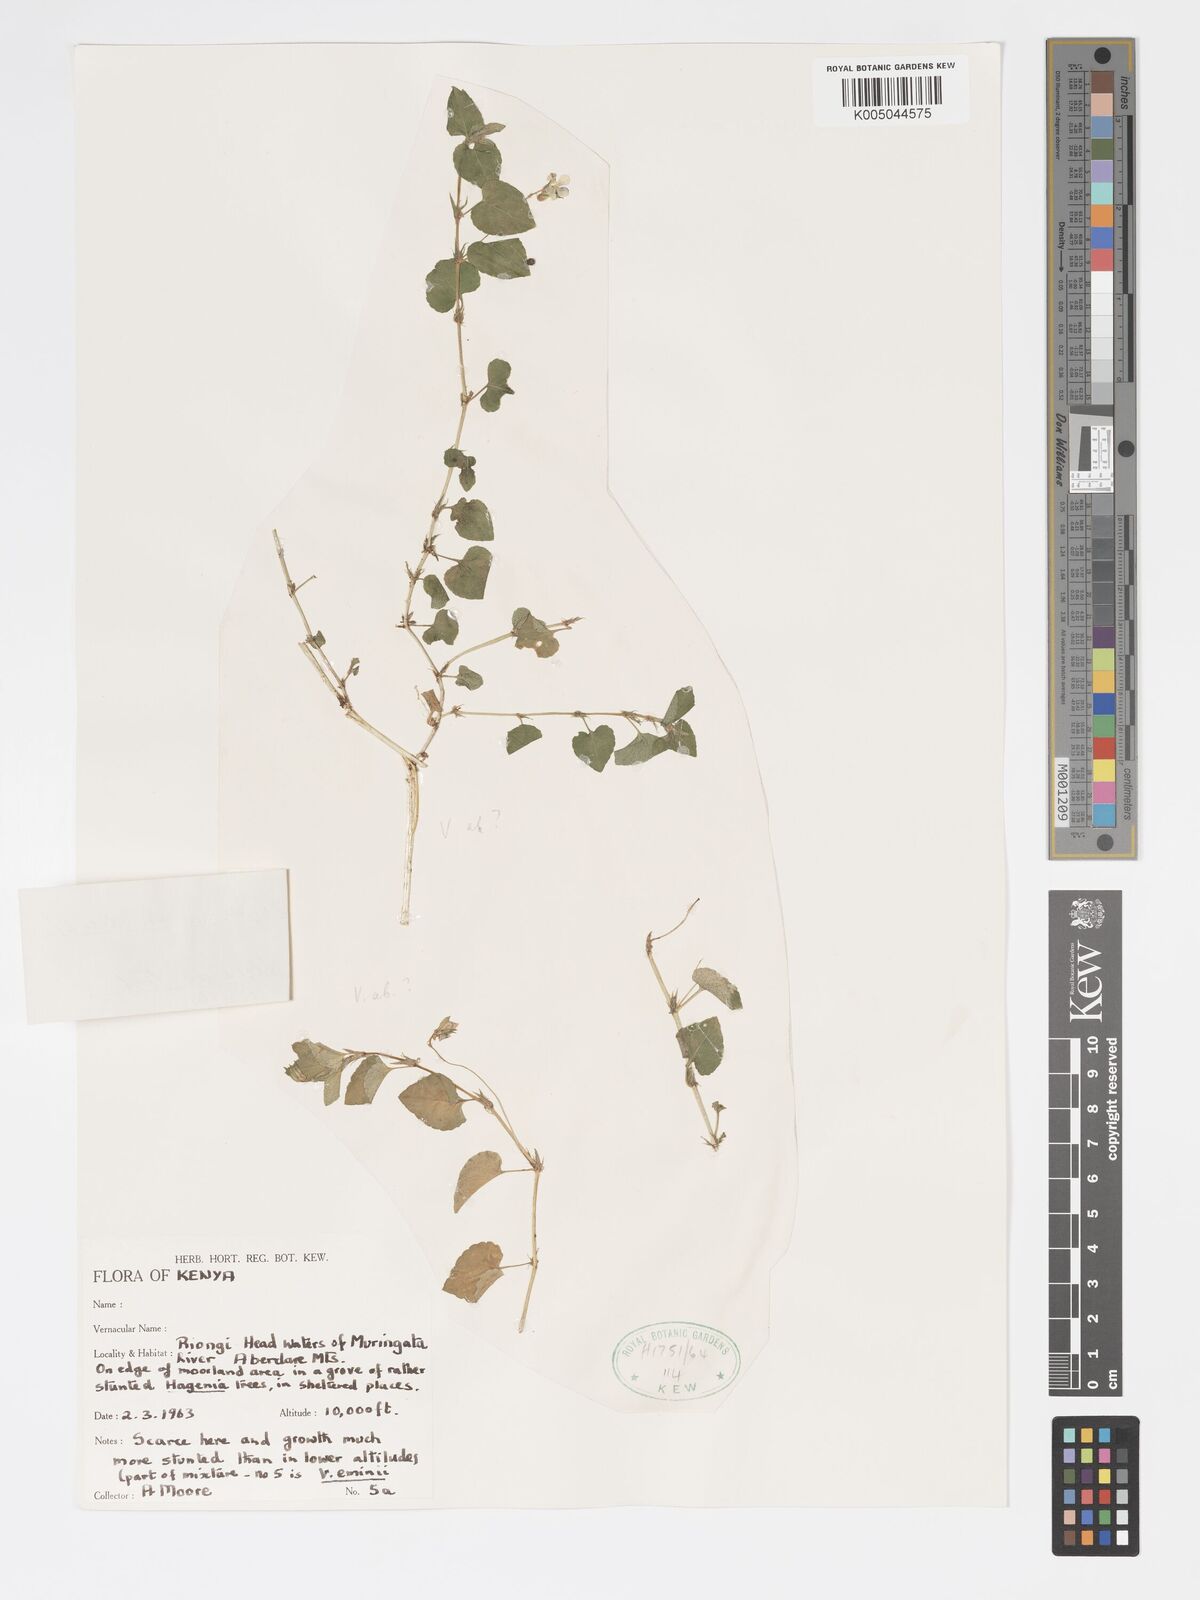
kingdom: Plantae
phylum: Tracheophyta
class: Magnoliopsida
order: Malpighiales
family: Violaceae
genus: Viola
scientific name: Viola abyssinica
